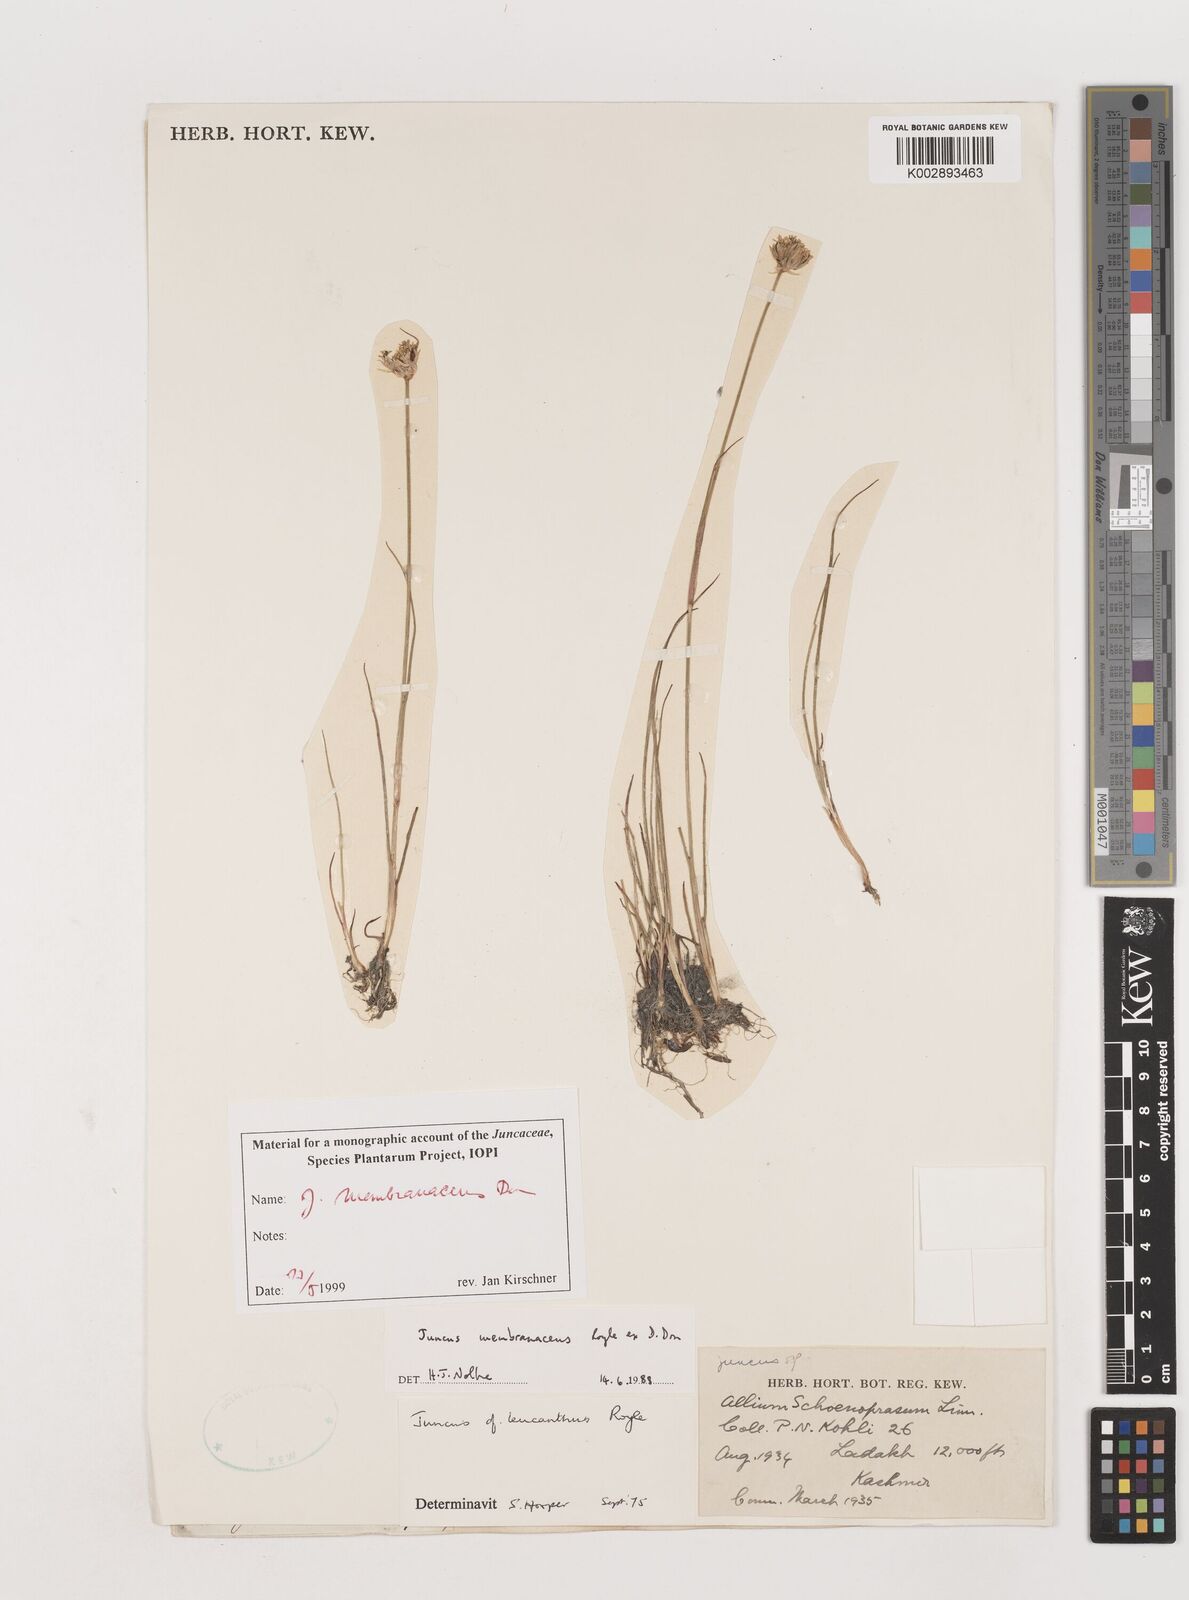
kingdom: Plantae
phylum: Tracheophyta
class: Liliopsida
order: Poales
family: Juncaceae
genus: Juncus
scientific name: Juncus membranaceus
